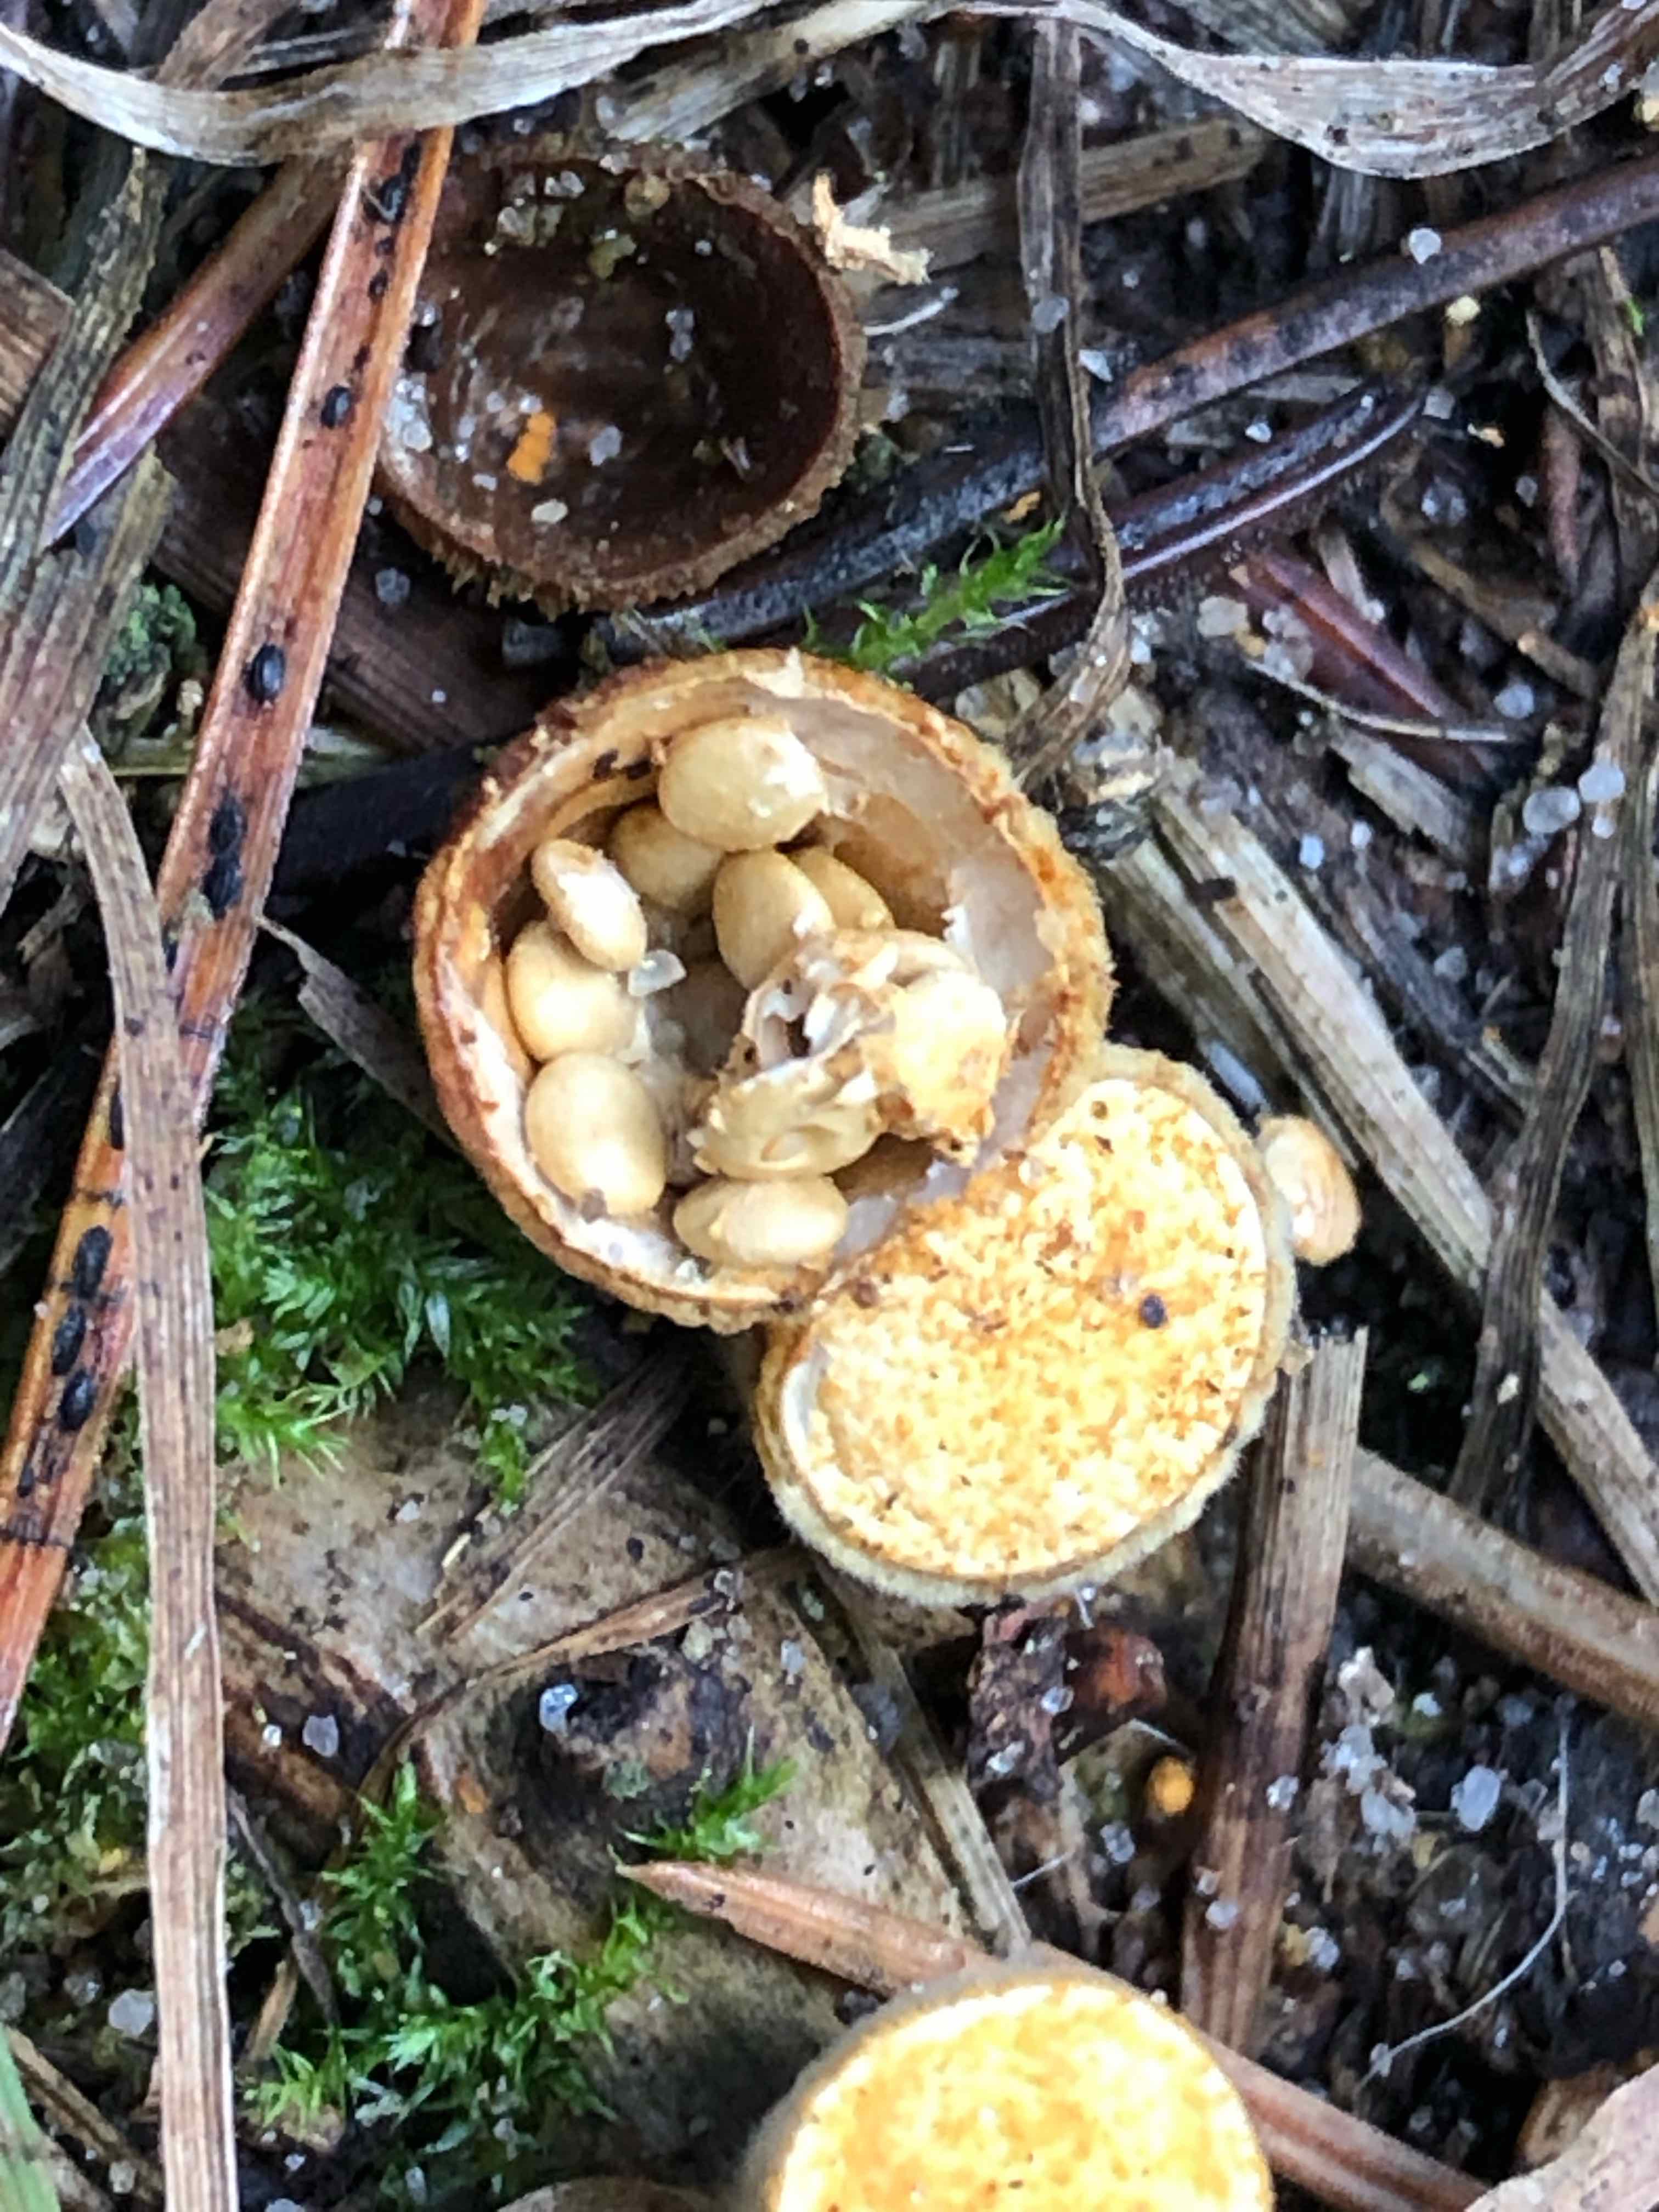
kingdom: Fungi
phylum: Basidiomycota
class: Agaricomycetes
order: Agaricales
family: Nidulariaceae
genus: Crucibulum
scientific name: Crucibulum crucibuliforme
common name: krukkesvamp
